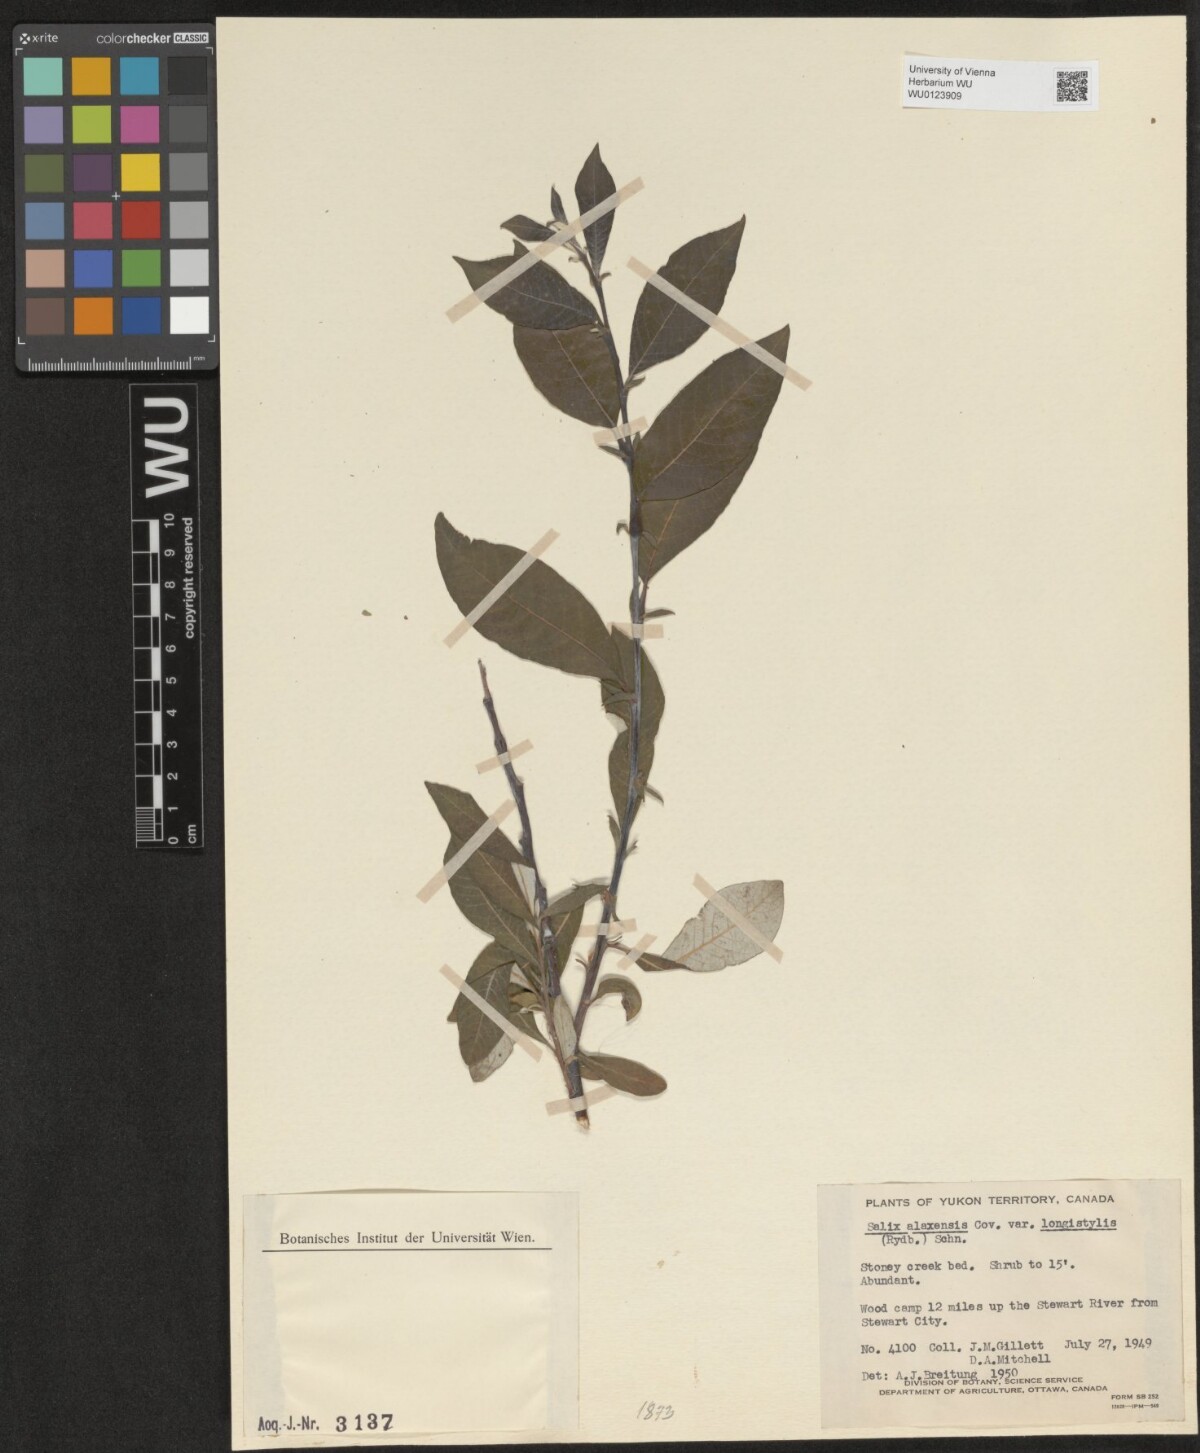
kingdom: Plantae
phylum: Tracheophyta
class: Magnoliopsida
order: Malpighiales
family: Salicaceae
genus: Salix
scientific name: Salix alaxensis
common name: Feltleaf willow
